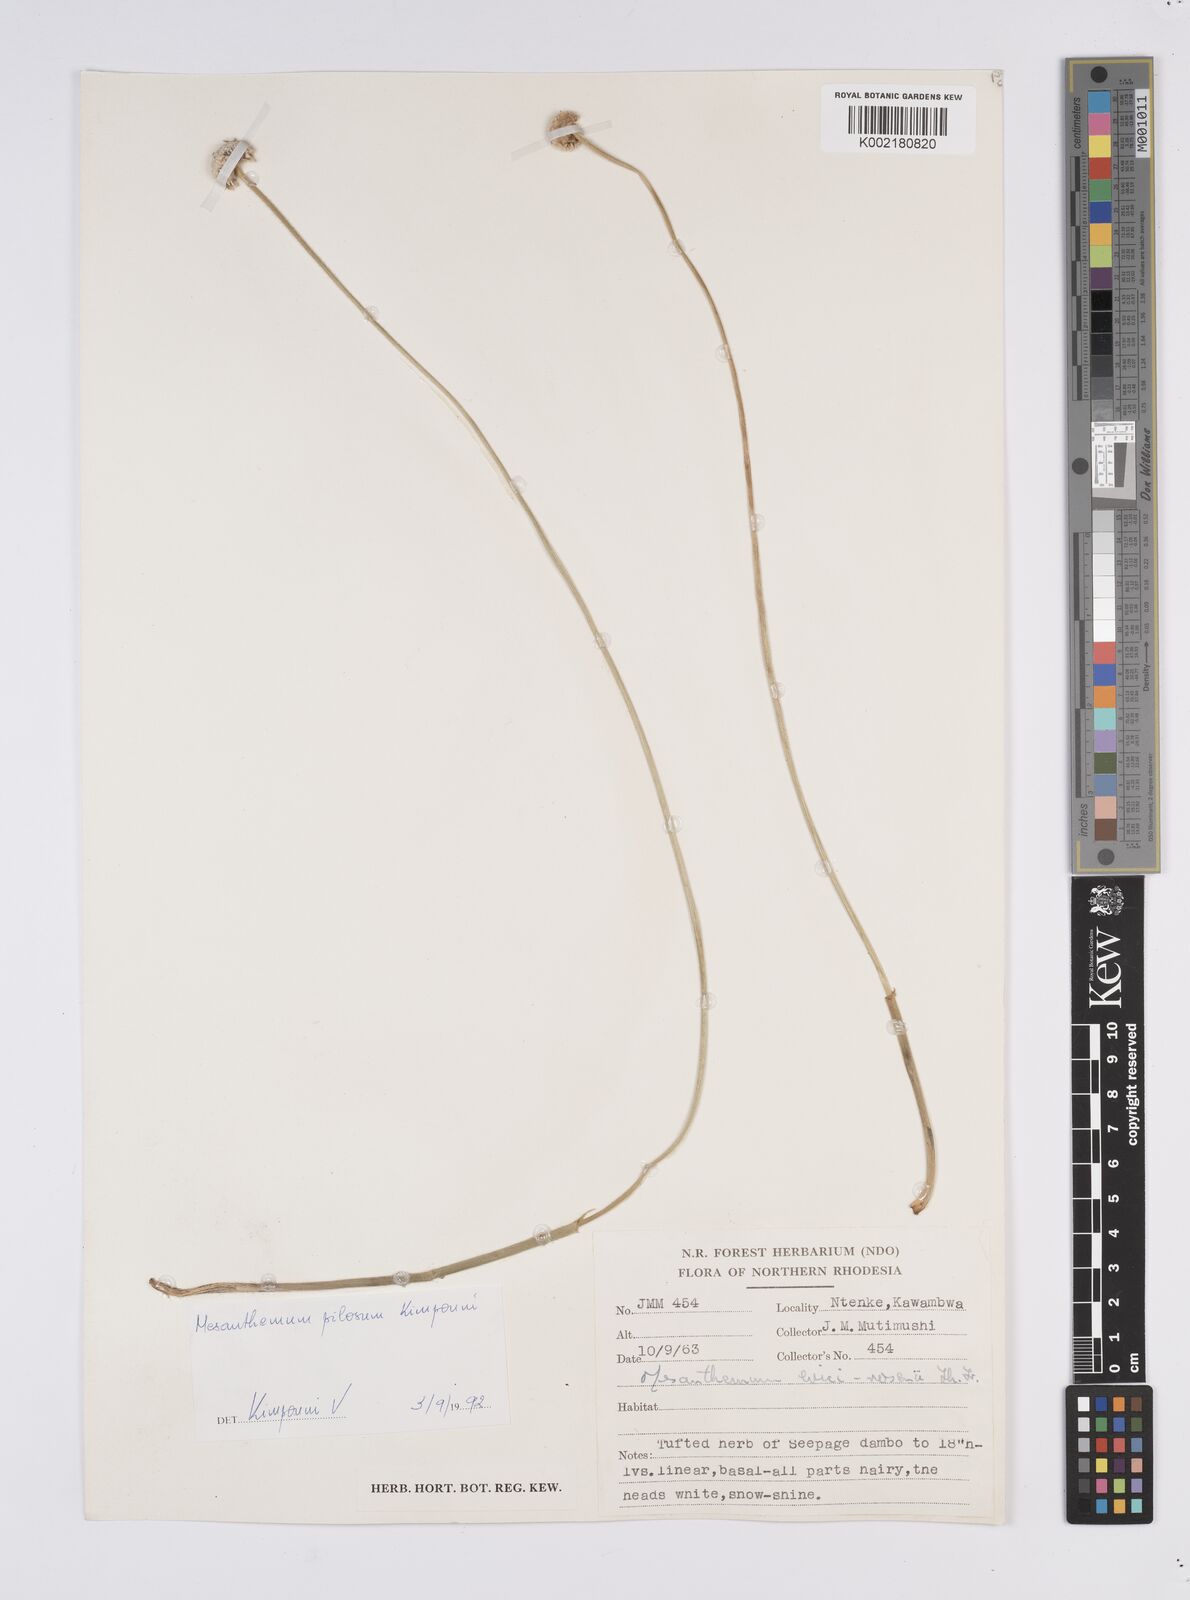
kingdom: Plantae
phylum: Tracheophyta
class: Liliopsida
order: Poales
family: Eriocaulaceae
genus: Mesanthemum
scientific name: Mesanthemum pilosum
